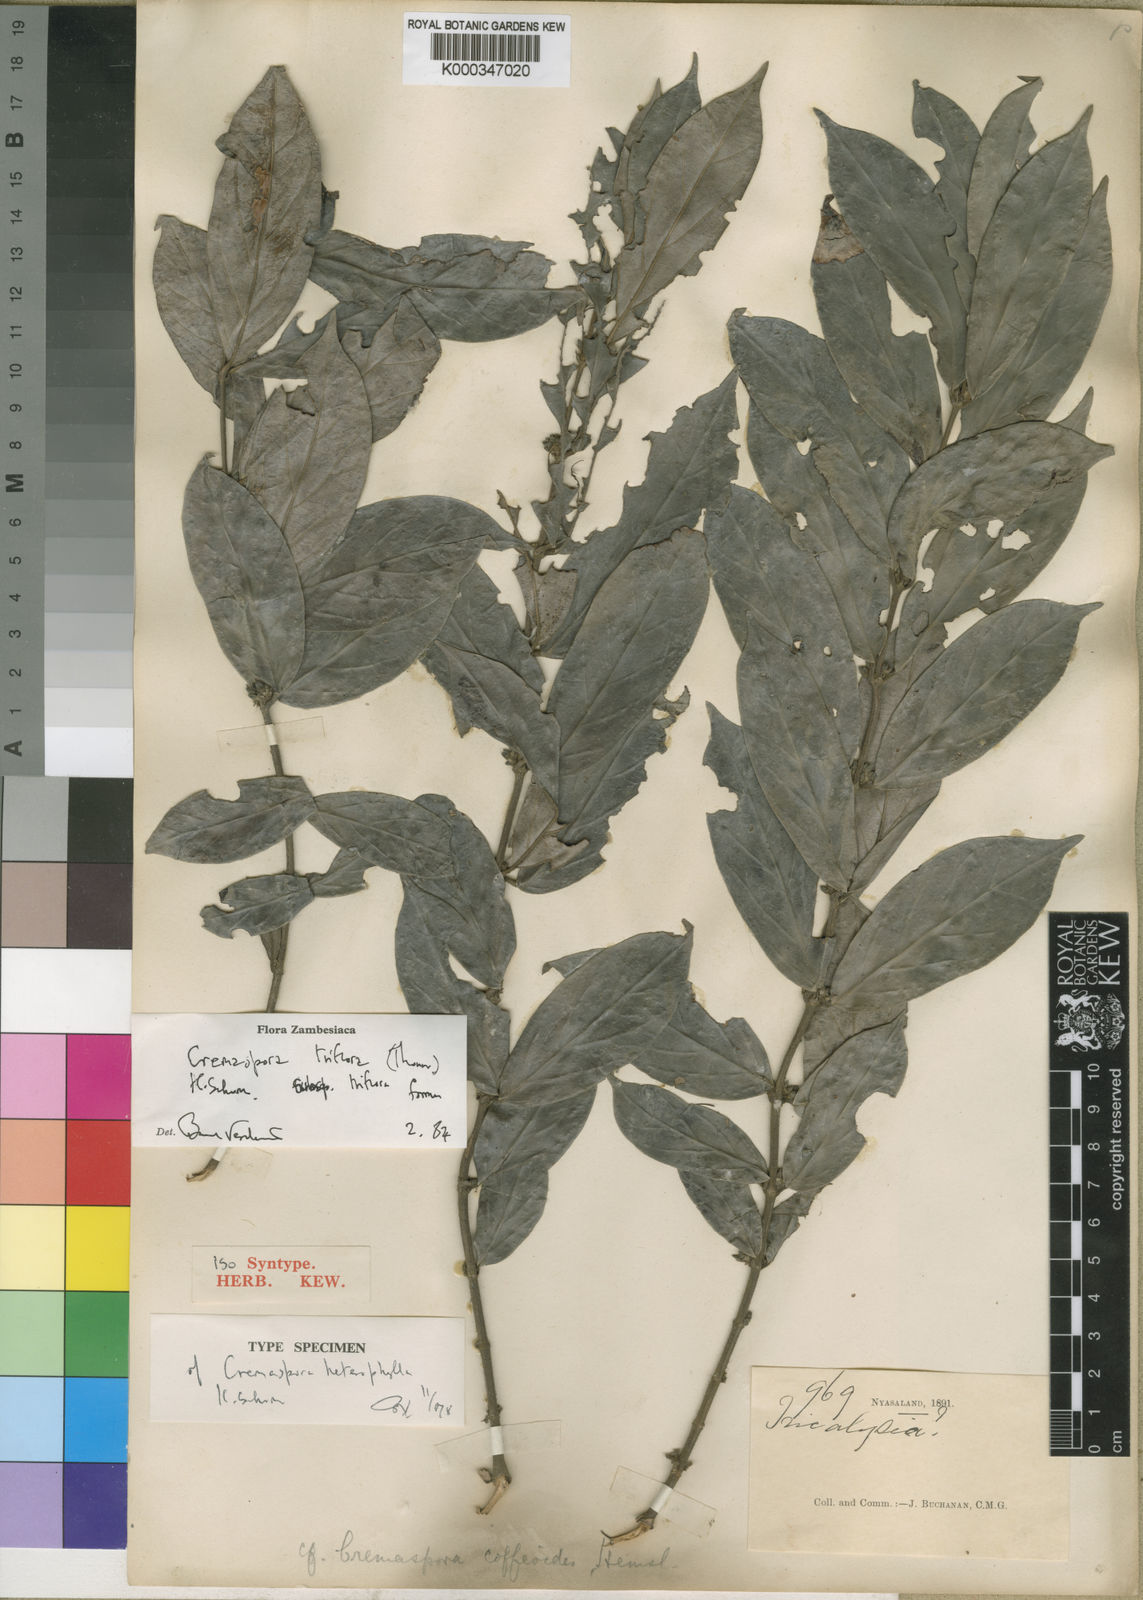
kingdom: Plantae
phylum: Tracheophyta
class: Magnoliopsida
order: Gentianales
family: Rubiaceae
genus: Cremaspora
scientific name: Cremaspora triflora
